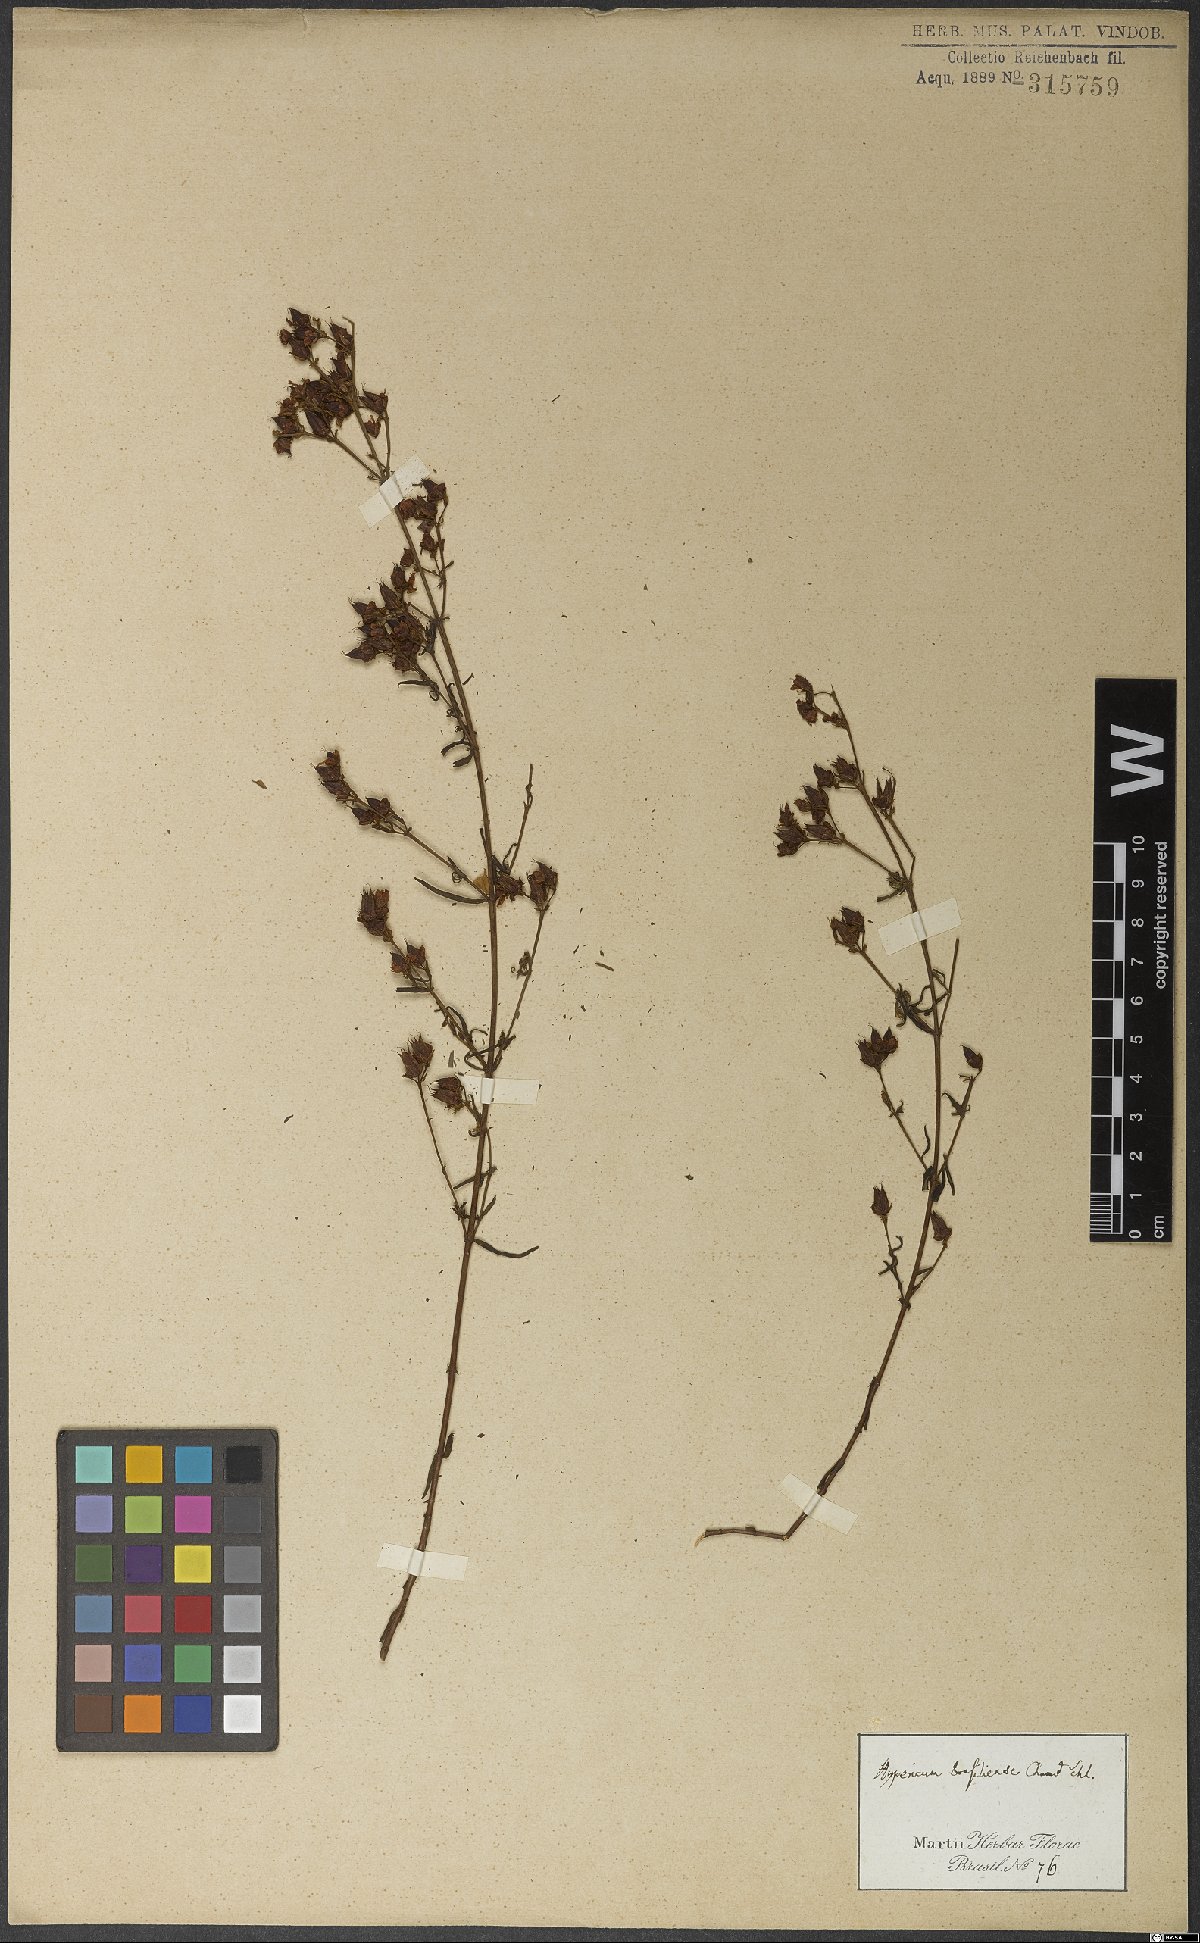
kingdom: Plantae
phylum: Tracheophyta
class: Magnoliopsida
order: Malpighiales
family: Hypericaceae
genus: Hypericum
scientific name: Hypericum brasiliense
